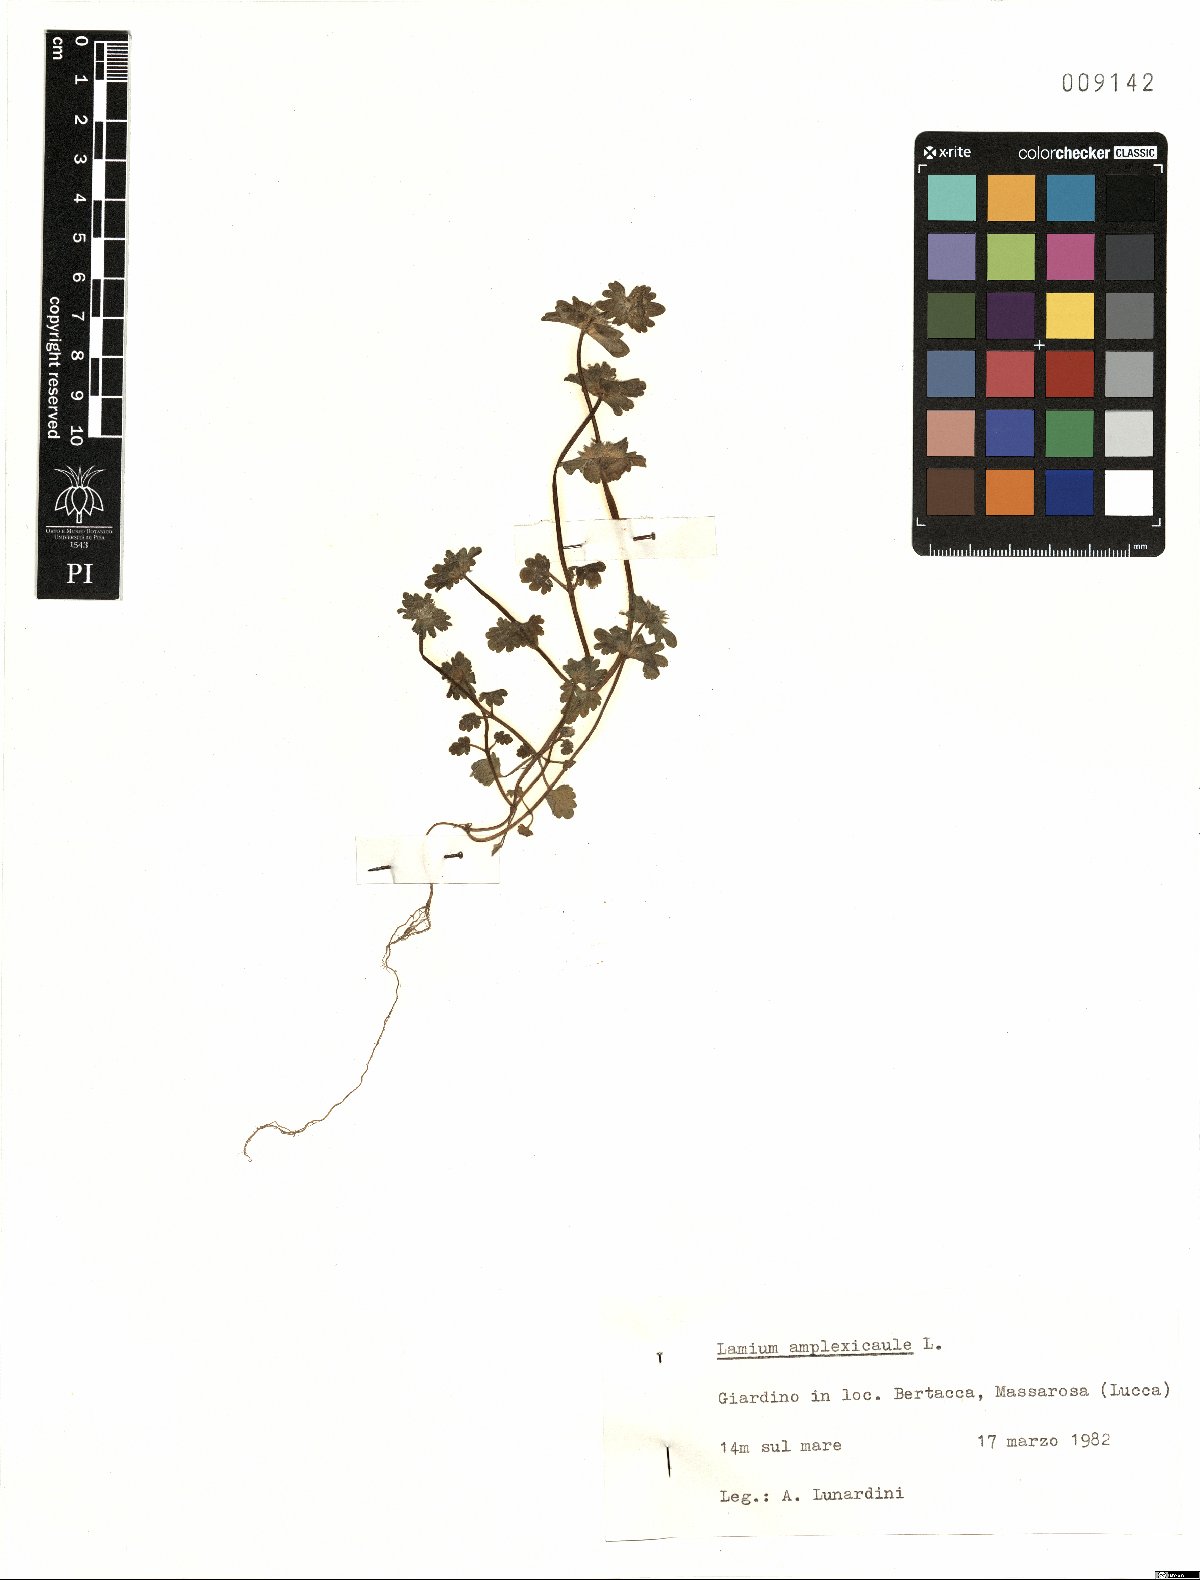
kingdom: Plantae
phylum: Tracheophyta
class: Magnoliopsida
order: Lamiales
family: Lamiaceae
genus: Lamium
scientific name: Lamium amplexicaule
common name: Henbit dead-nettle
